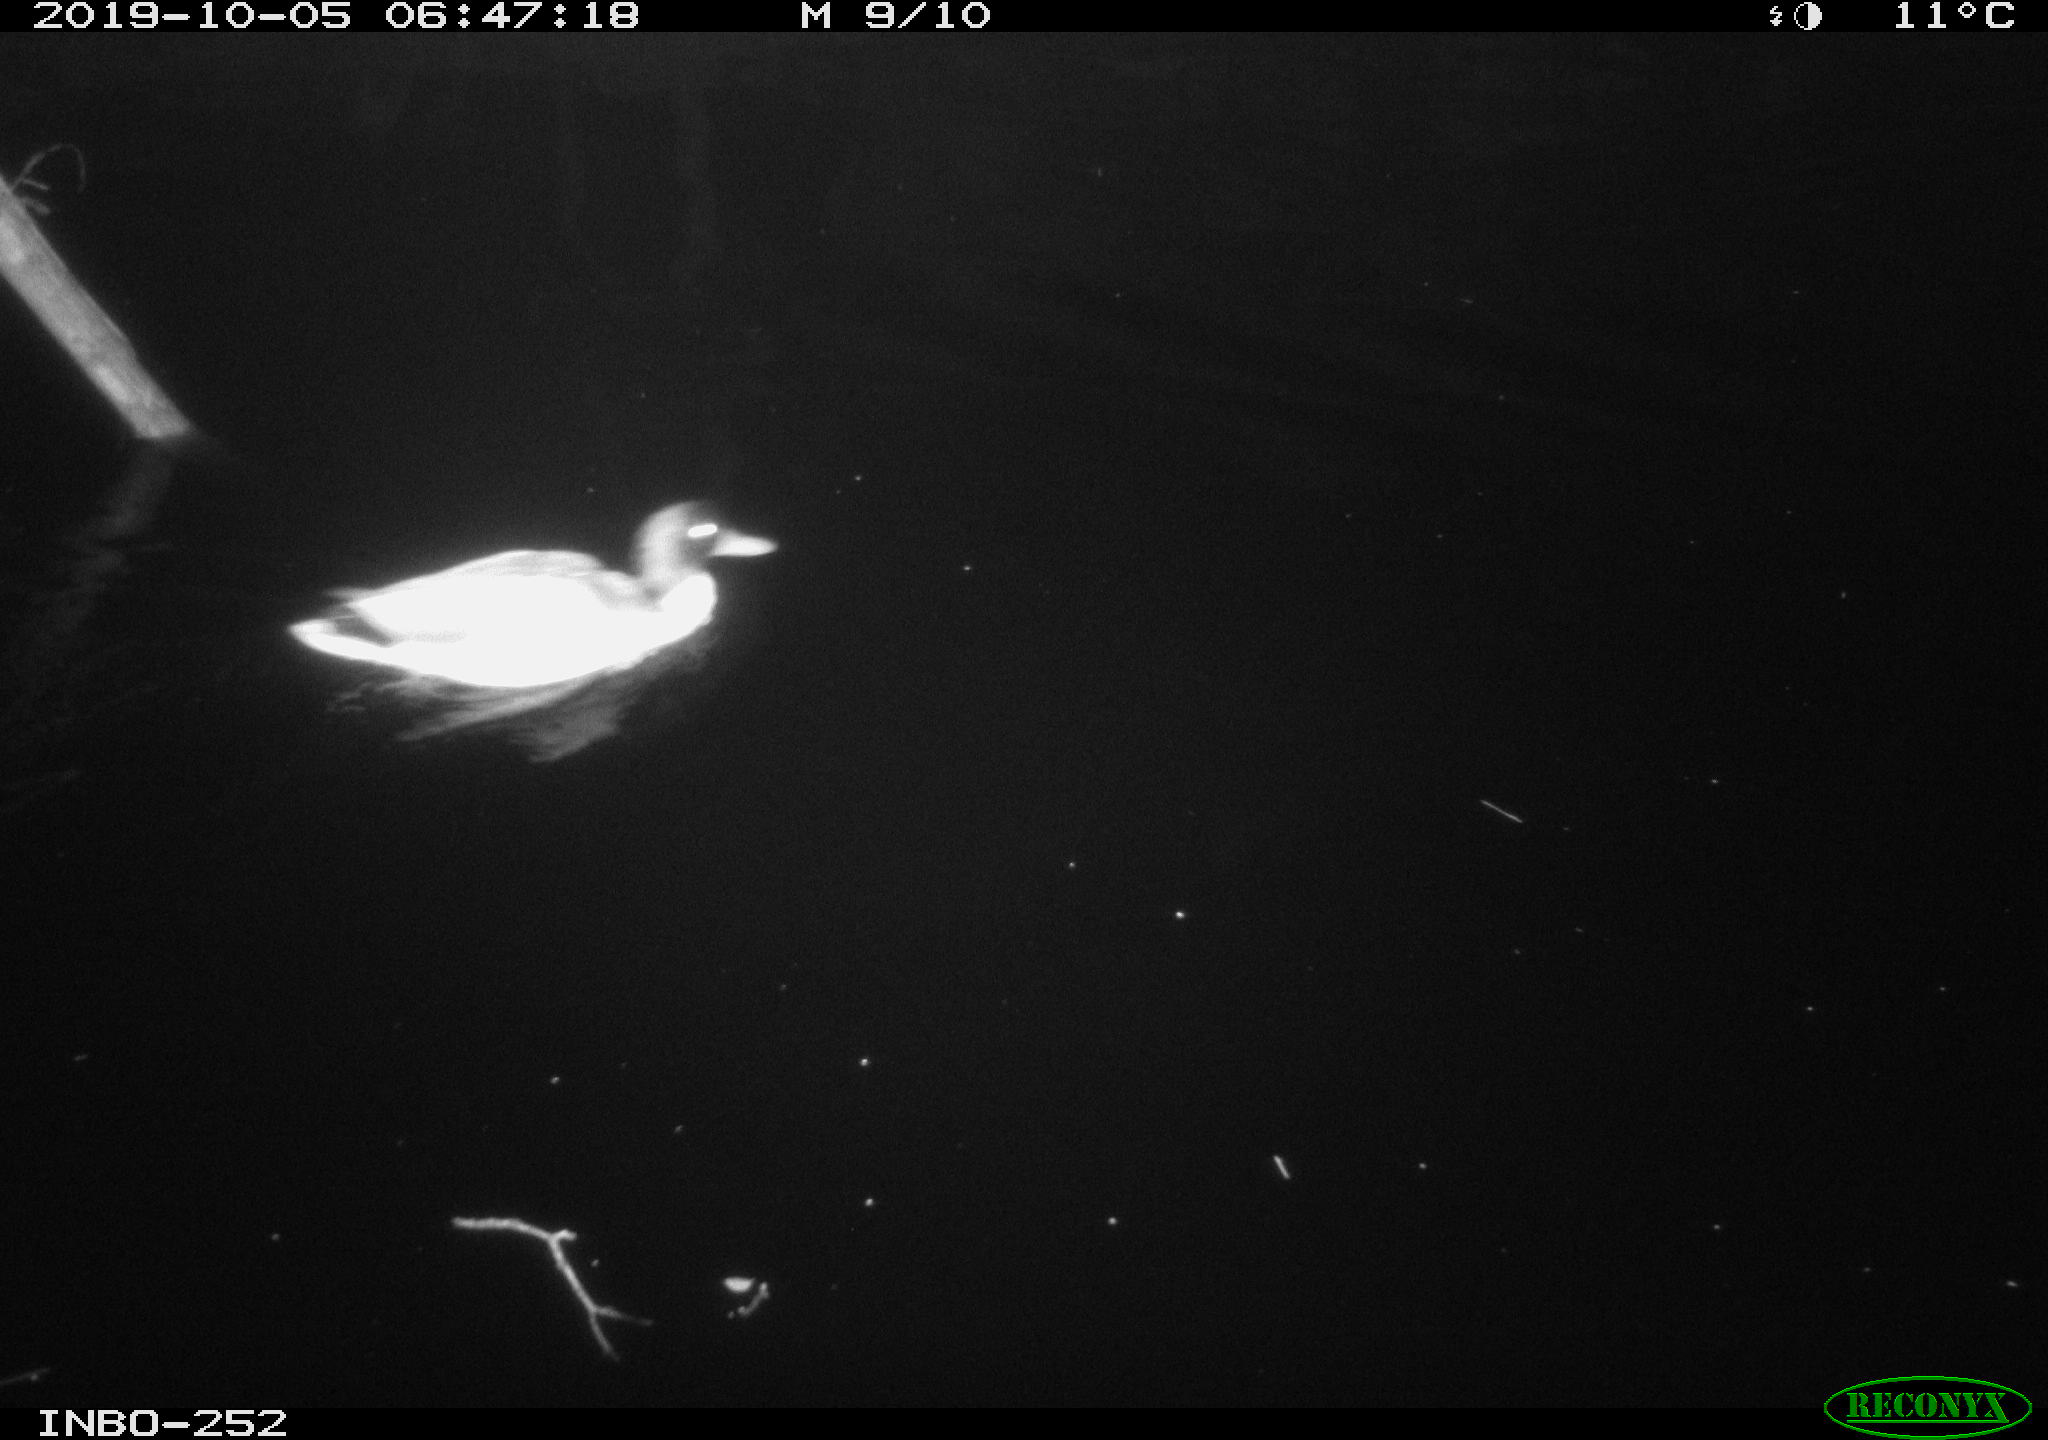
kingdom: Animalia
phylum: Chordata
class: Aves
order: Anseriformes
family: Anatidae
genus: Anas
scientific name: Anas platyrhynchos
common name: Mallard
